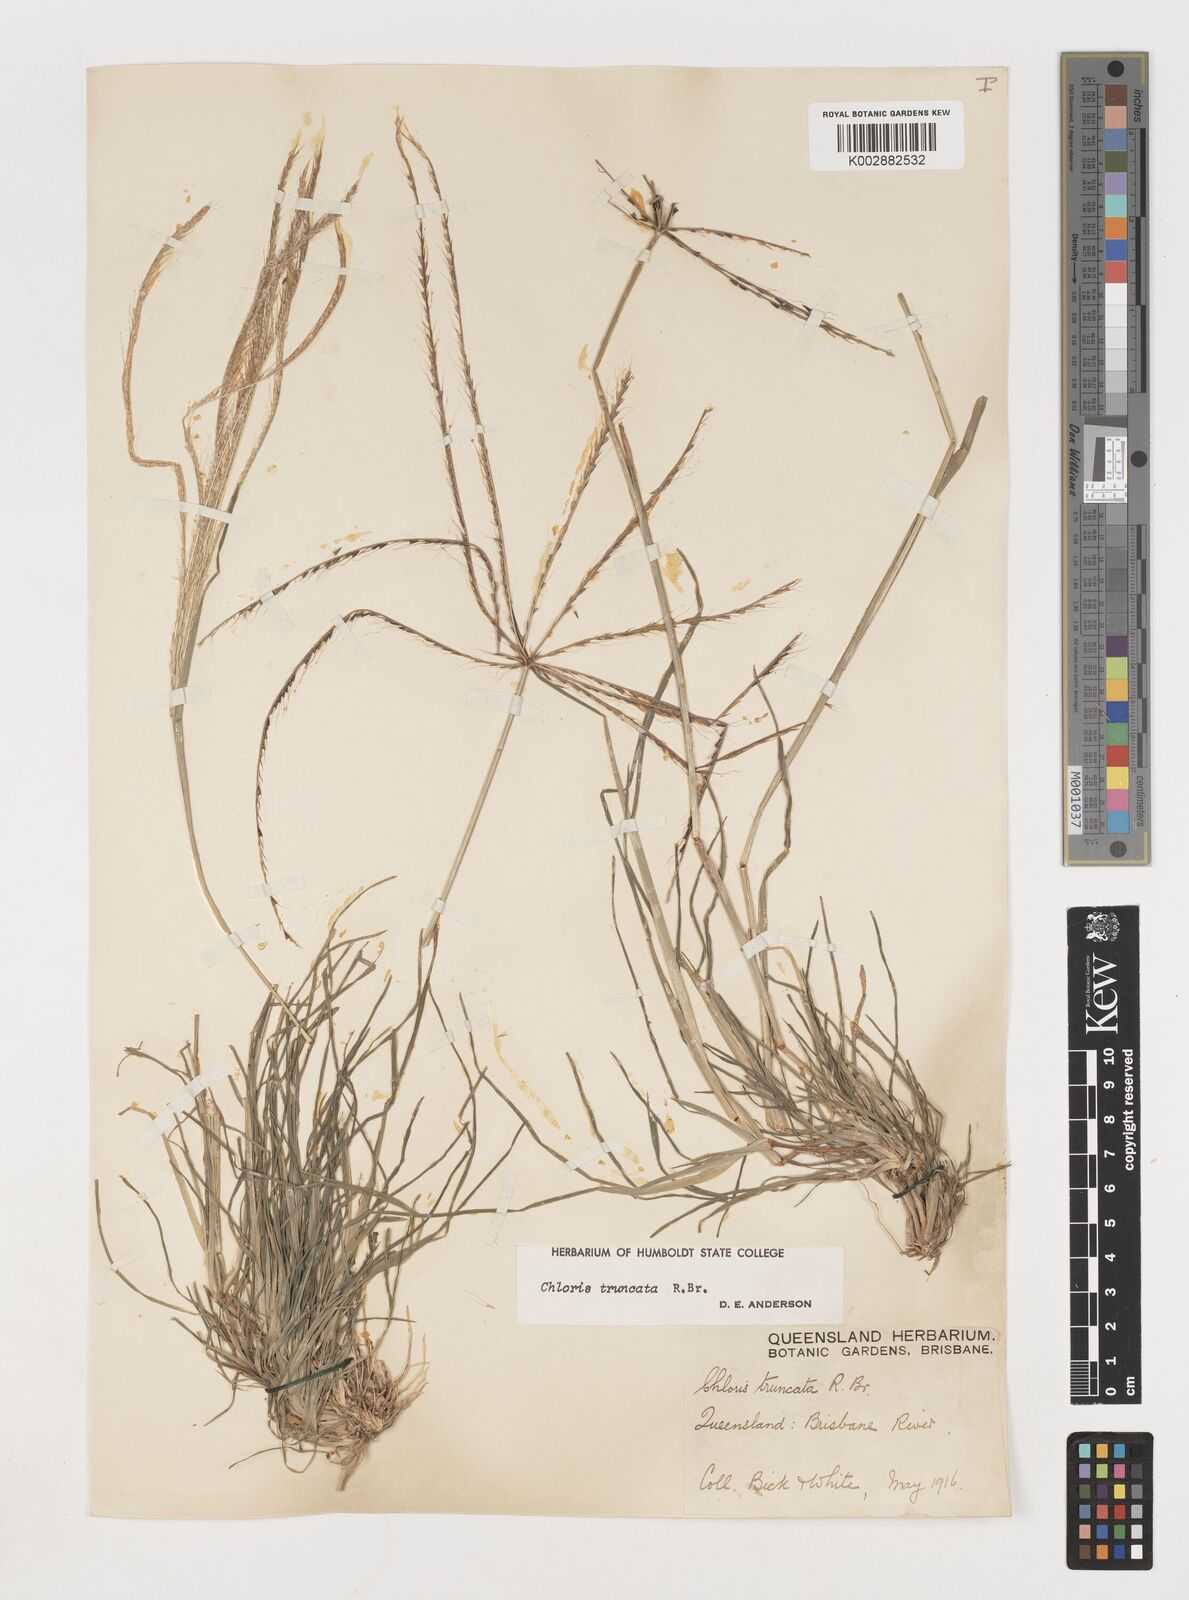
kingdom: Plantae
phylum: Tracheophyta
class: Liliopsida
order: Poales
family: Poaceae
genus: Chloris
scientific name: Chloris truncata
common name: Windmill-grass
